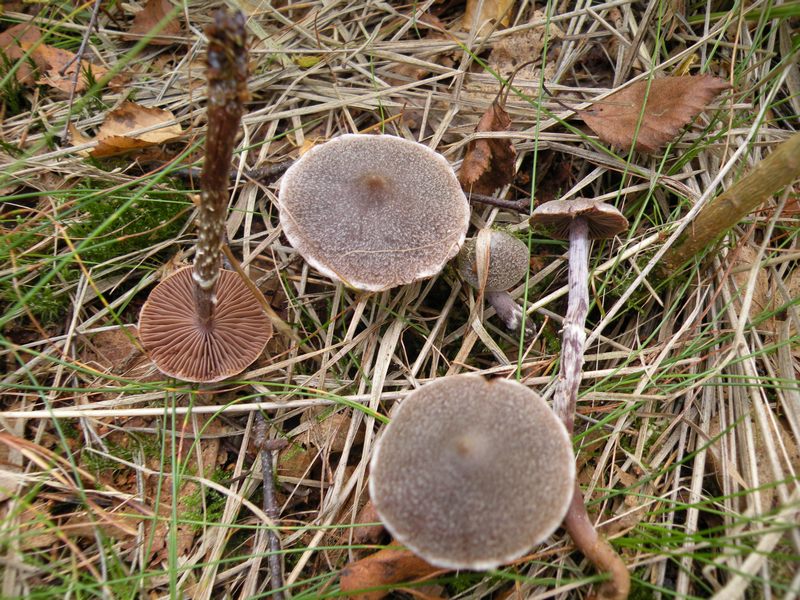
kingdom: Fungi
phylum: Basidiomycota
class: Agaricomycetes
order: Agaricales
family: Cortinariaceae
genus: Cortinarius
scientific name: Cortinarius hemitrichus
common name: hvidfnugget slørhat
